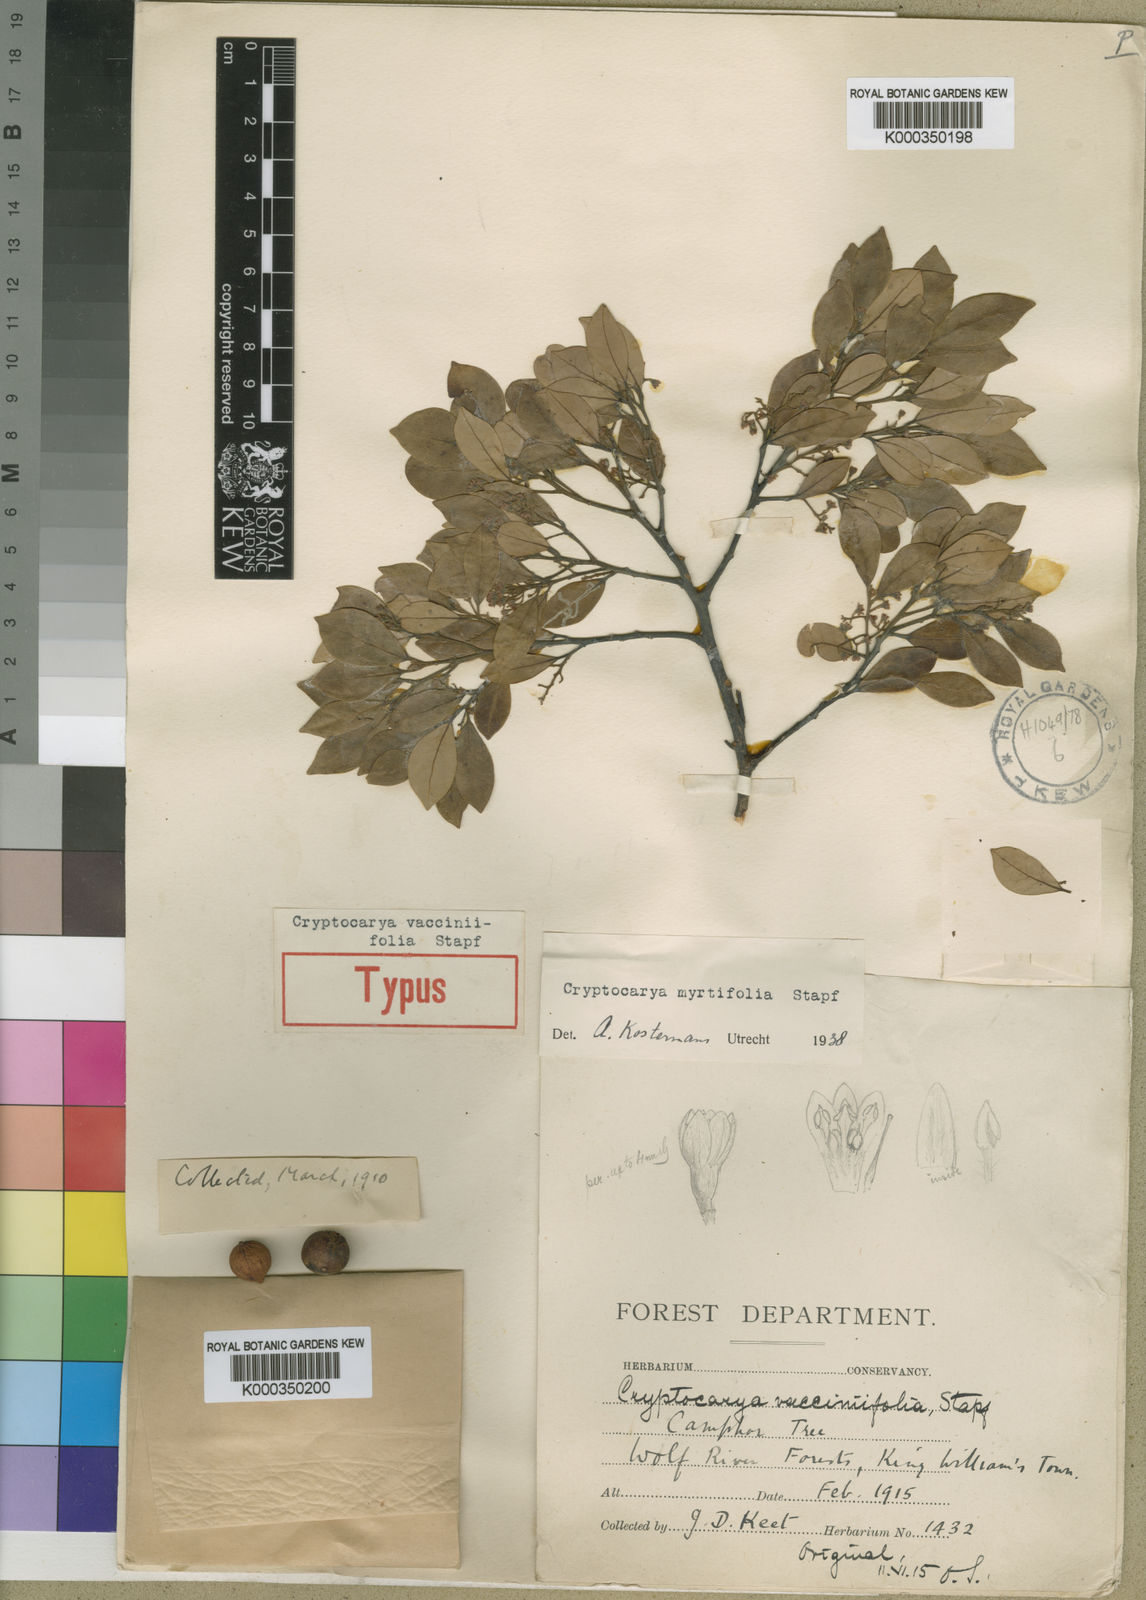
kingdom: Plantae
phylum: Tracheophyta
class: Magnoliopsida
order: Laurales
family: Lauraceae
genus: Cryptocarya
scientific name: Cryptocarya myrtifolia
